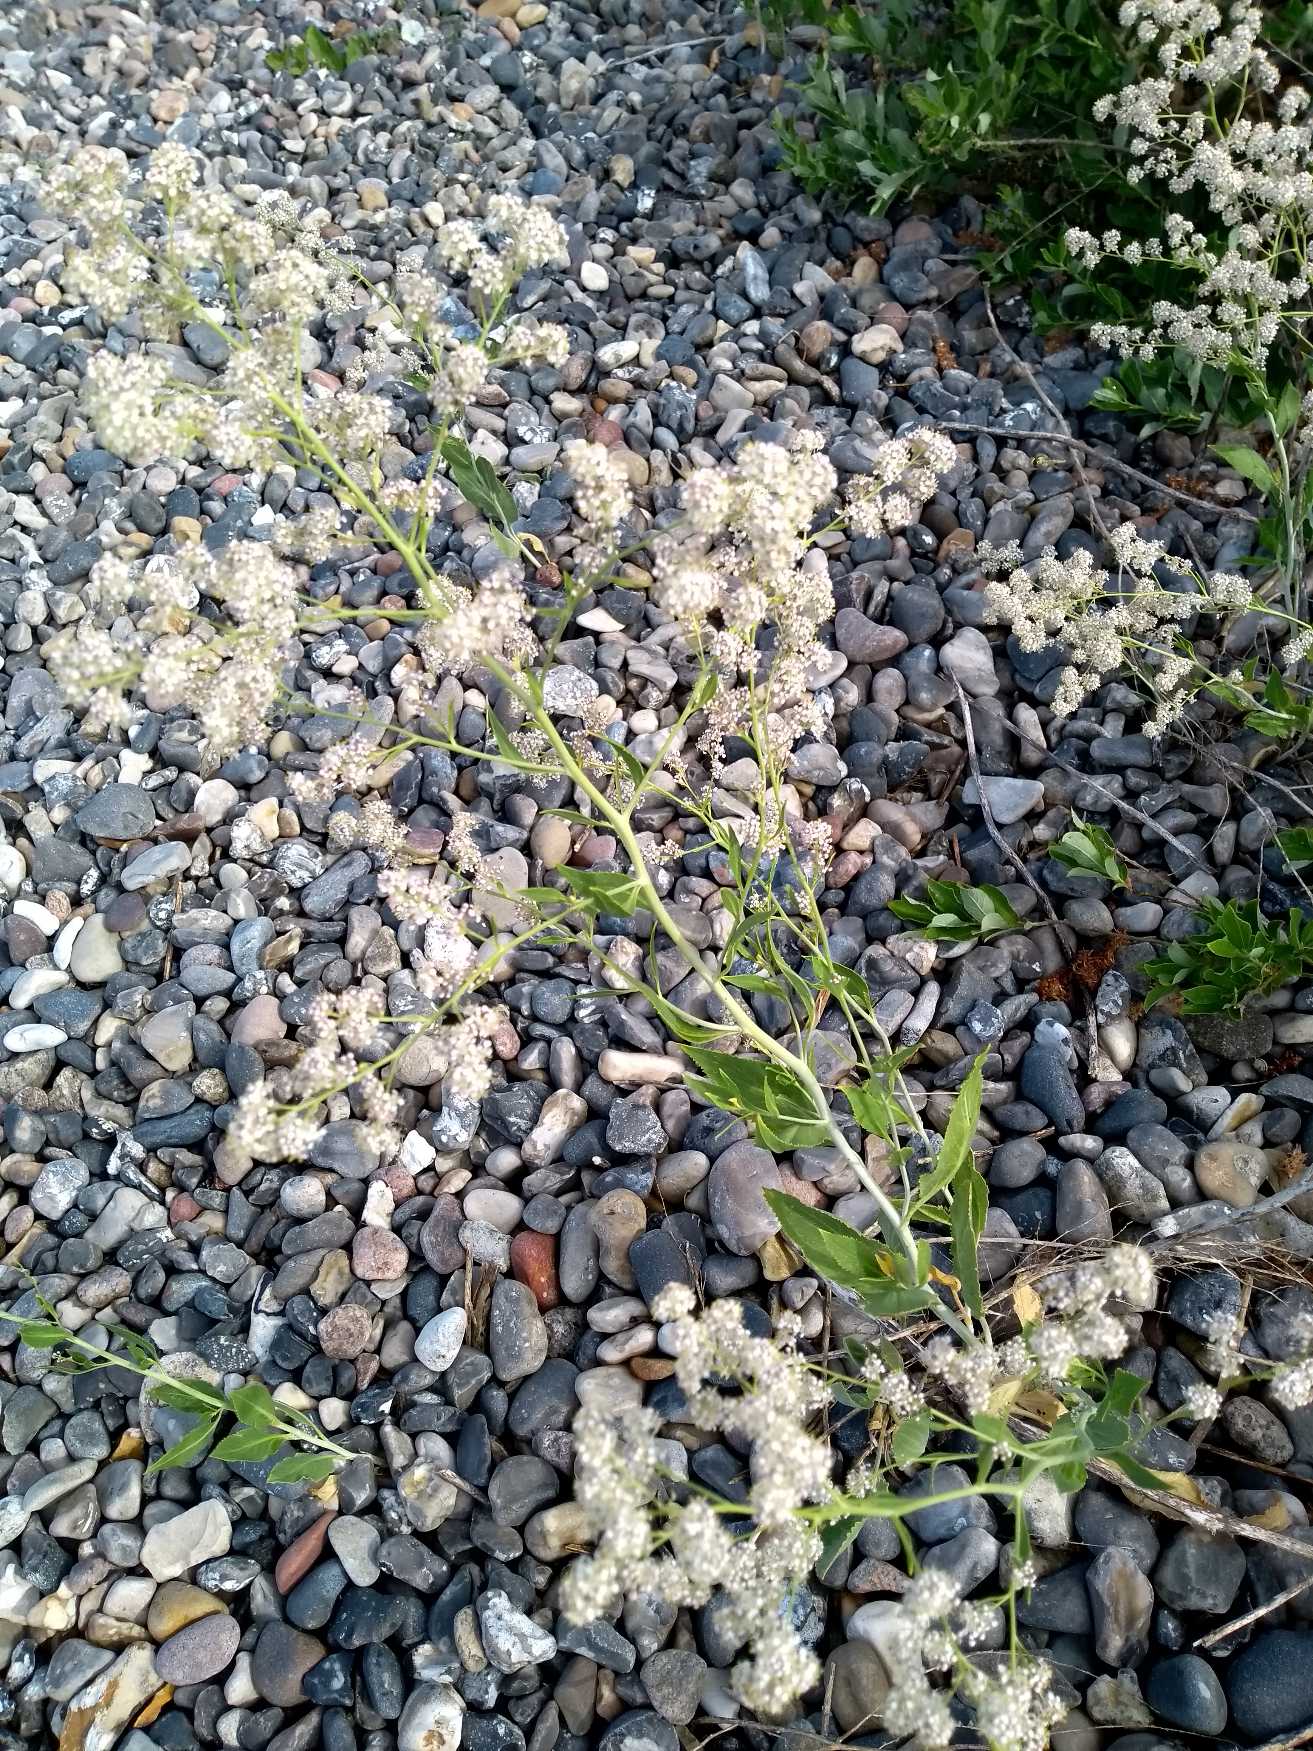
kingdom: Plantae
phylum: Tracheophyta
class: Magnoliopsida
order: Brassicales
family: Brassicaceae
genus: Lepidium
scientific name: Lepidium latifolium
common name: Strand-karse
